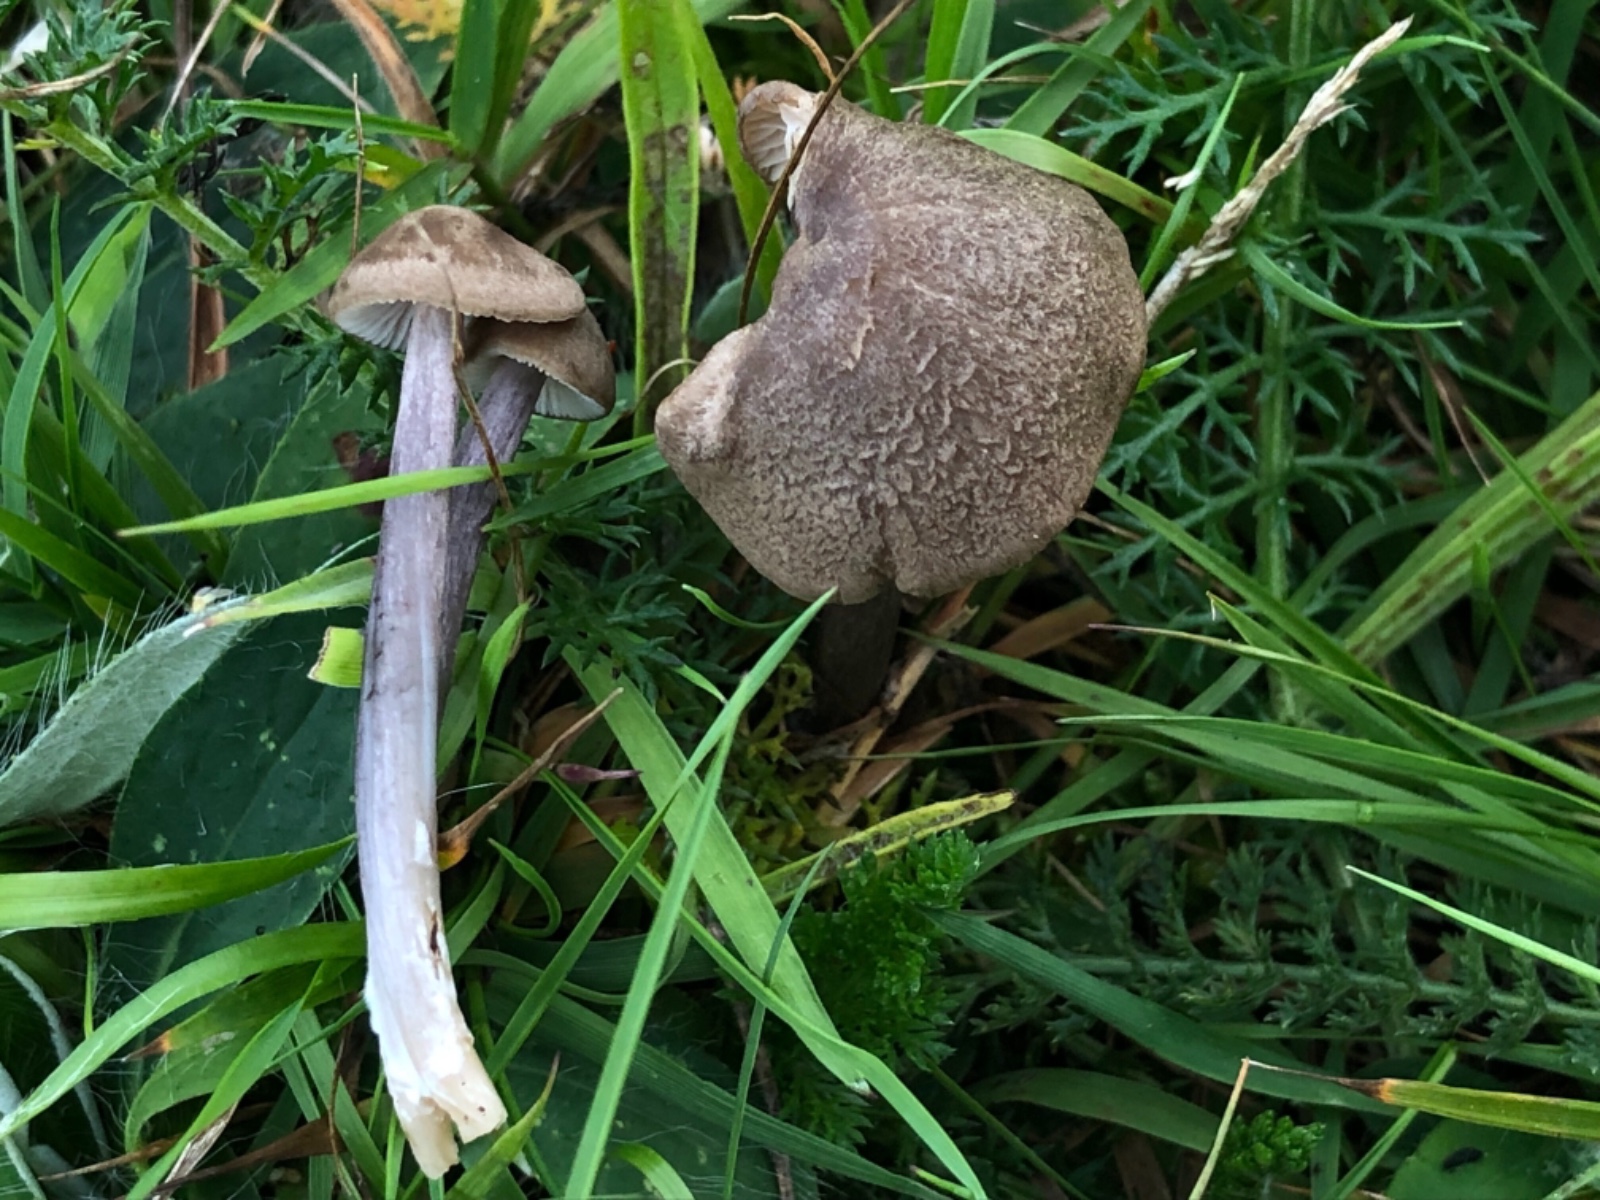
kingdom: Fungi
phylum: Basidiomycota
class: Agaricomycetes
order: Agaricales
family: Entolomataceae
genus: Entoloma
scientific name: Entoloma griseocyaneum
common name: gråblå rødblad
